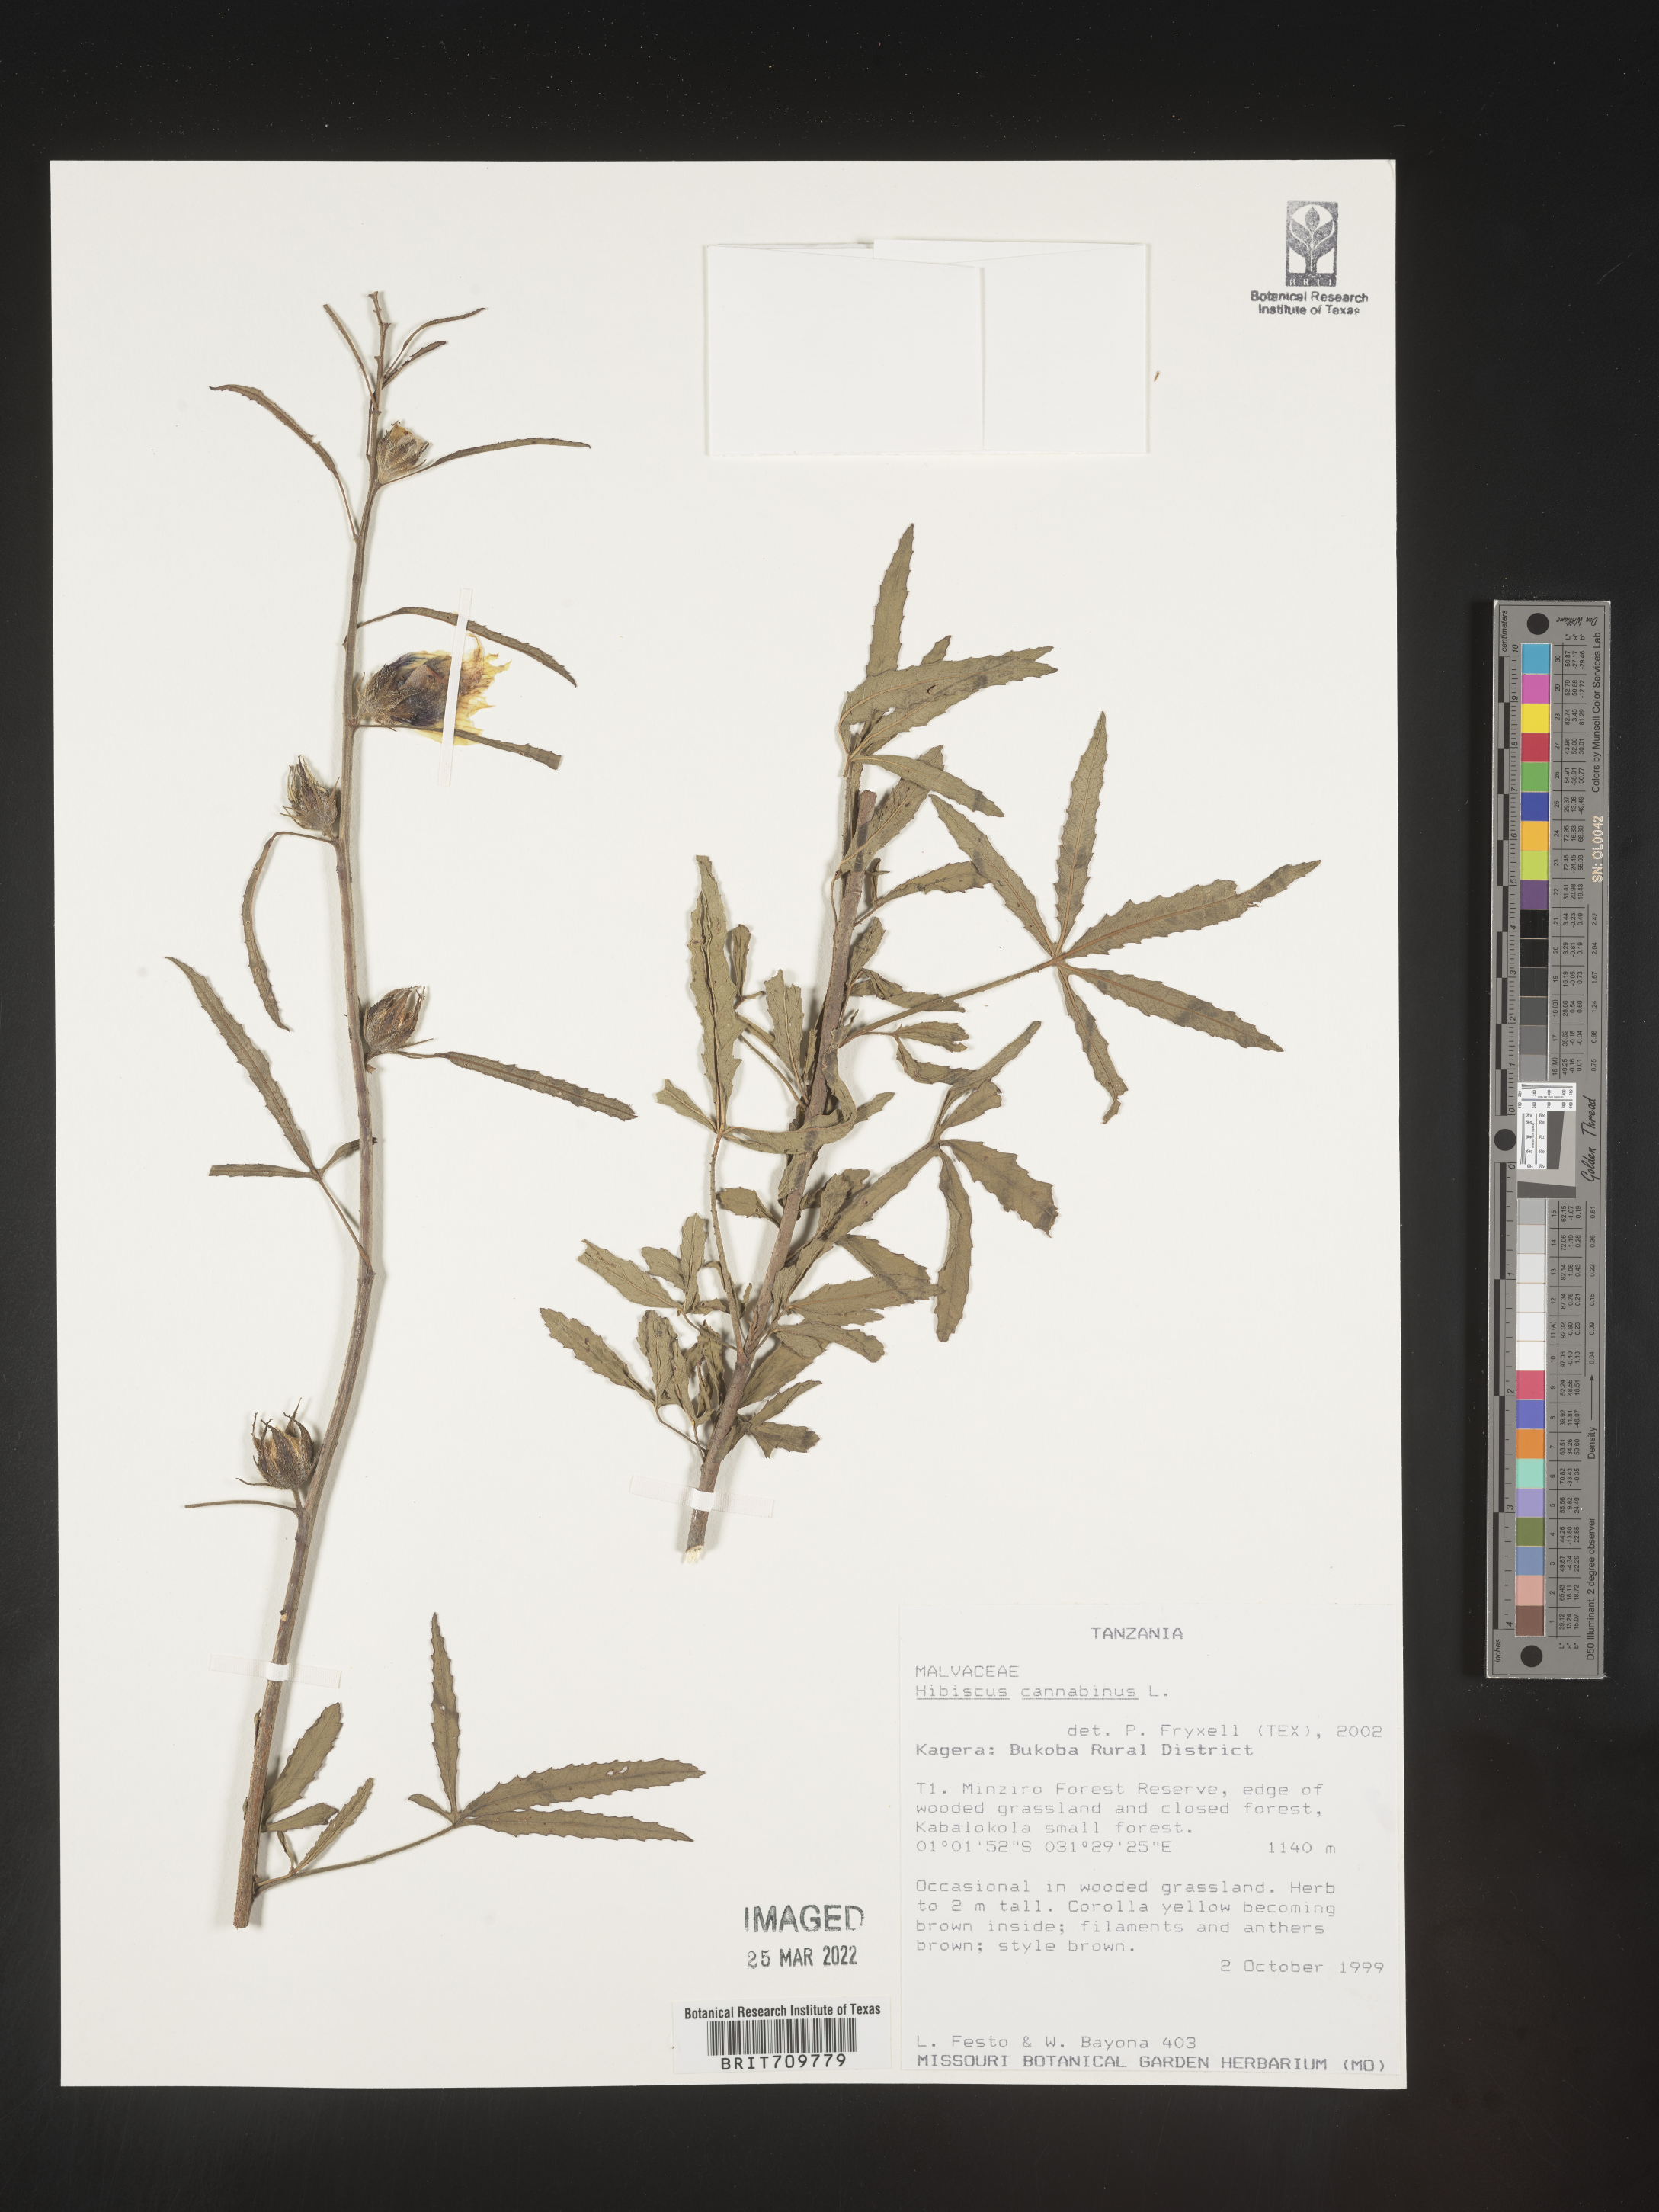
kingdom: Plantae
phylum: Tracheophyta
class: Magnoliopsida
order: Malvales
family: Malvaceae
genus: Hibiscus
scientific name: Hibiscus
